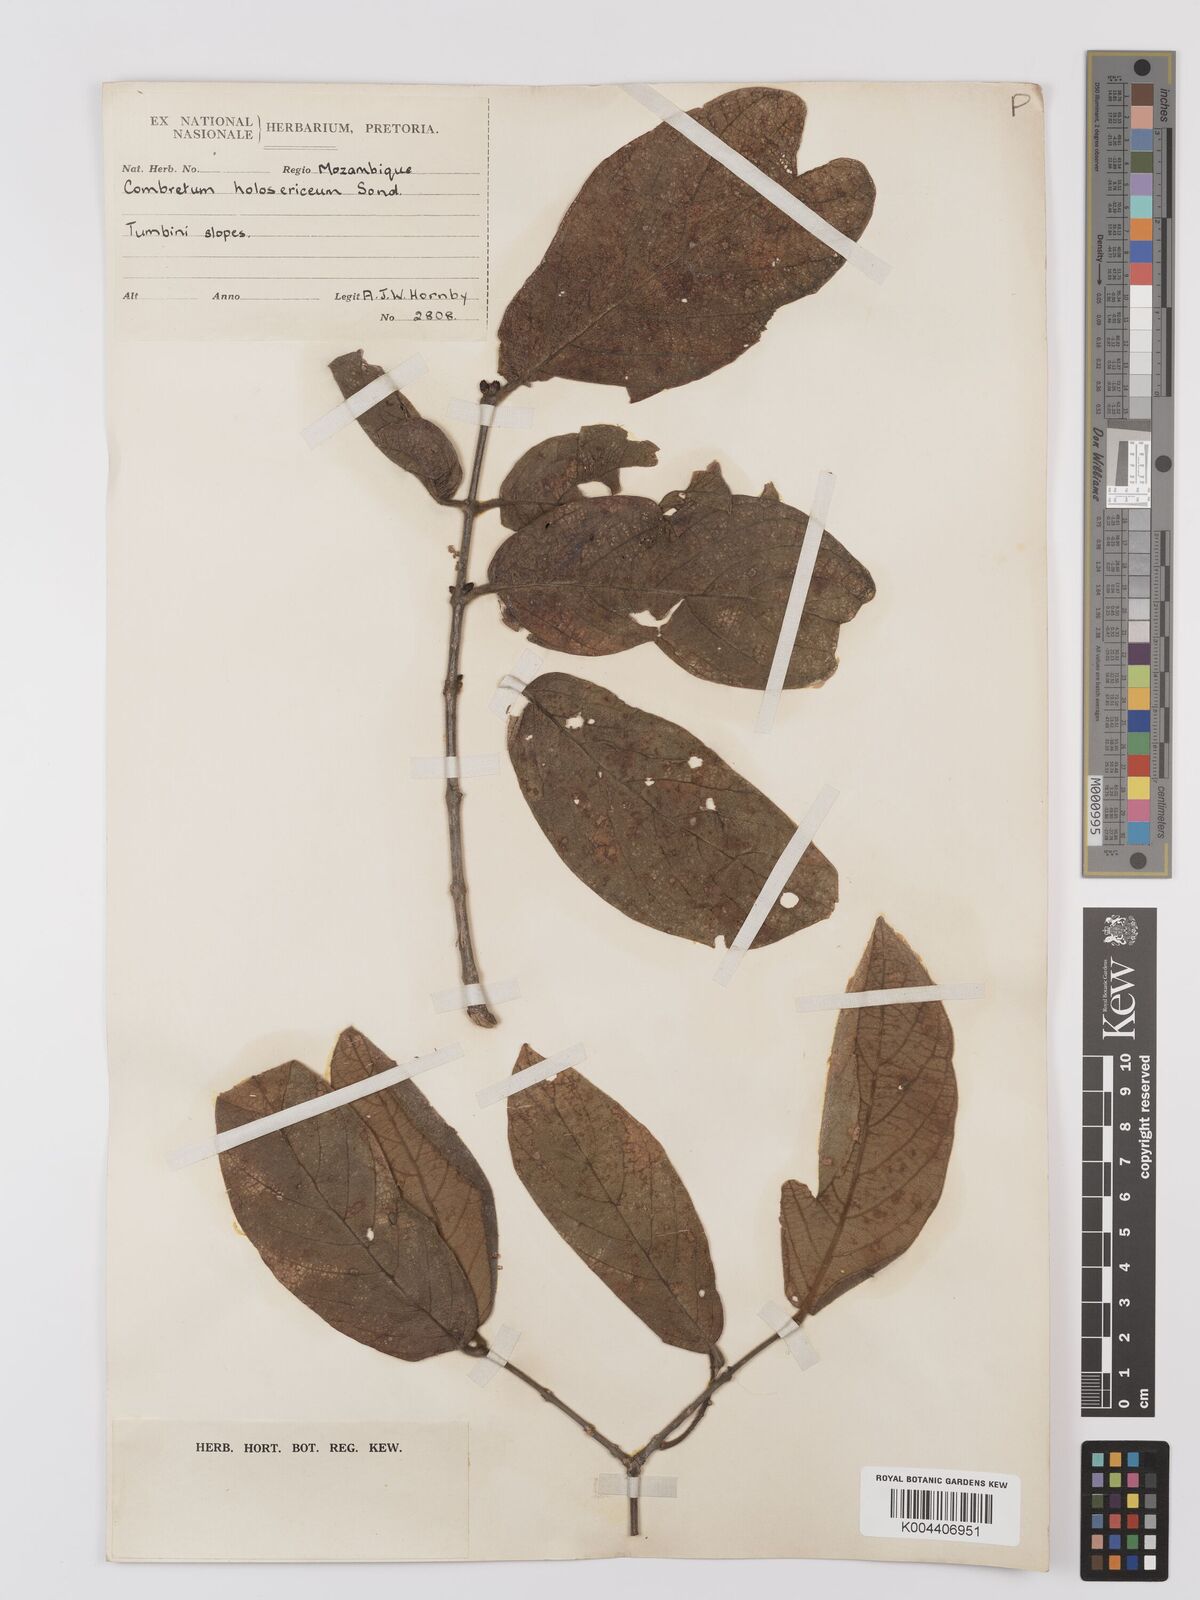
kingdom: Plantae
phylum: Tracheophyta
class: Magnoliopsida
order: Myrtales
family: Combretaceae
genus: Combretum
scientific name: Combretum
